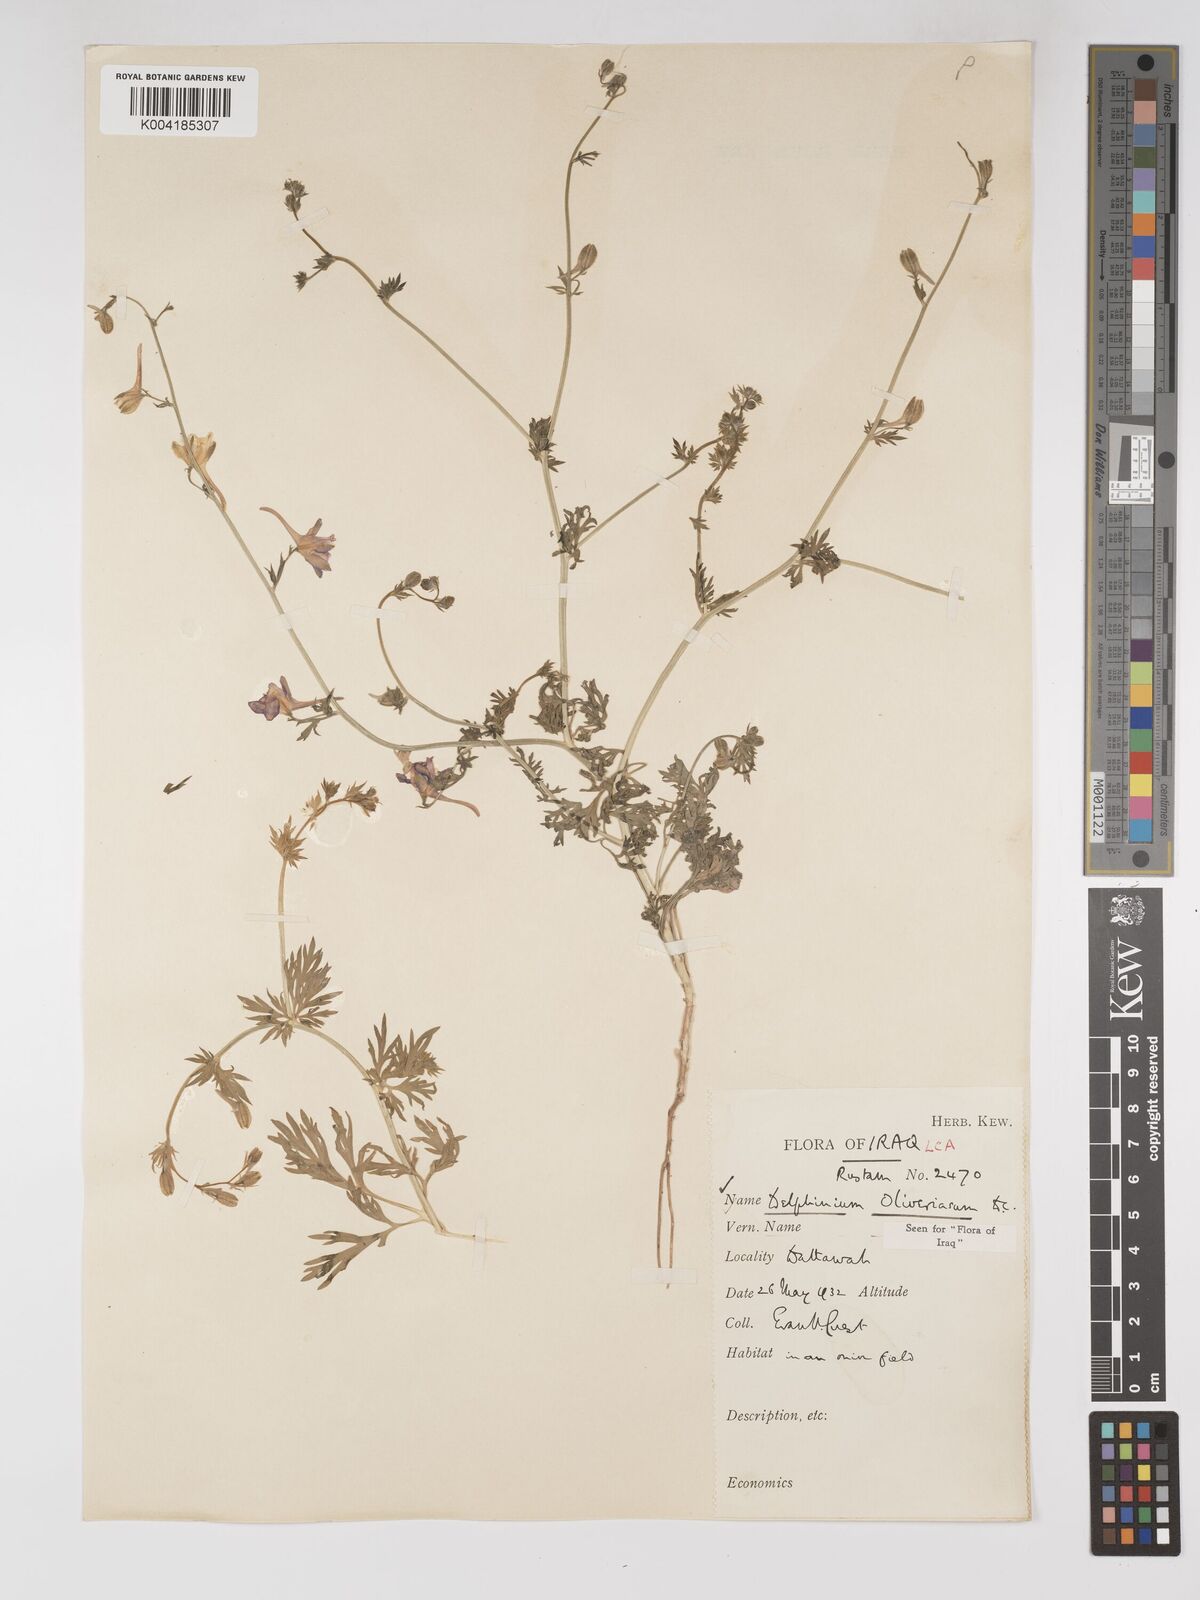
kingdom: Plantae
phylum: Tracheophyta
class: Magnoliopsida
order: Ranunculales
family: Ranunculaceae
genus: Delphinium
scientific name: Delphinium oliverianum
